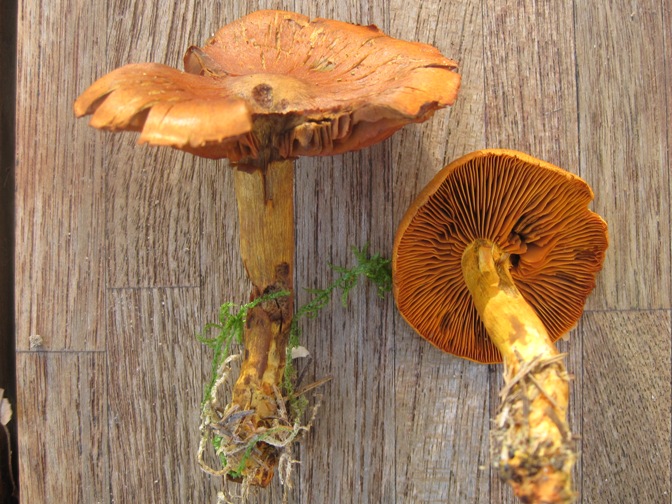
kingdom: Fungi
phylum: Basidiomycota
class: Agaricomycetes
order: Agaricales
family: Cortinariaceae
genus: Cortinarius
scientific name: Cortinarius malicorius
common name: grønkødet slørhat
